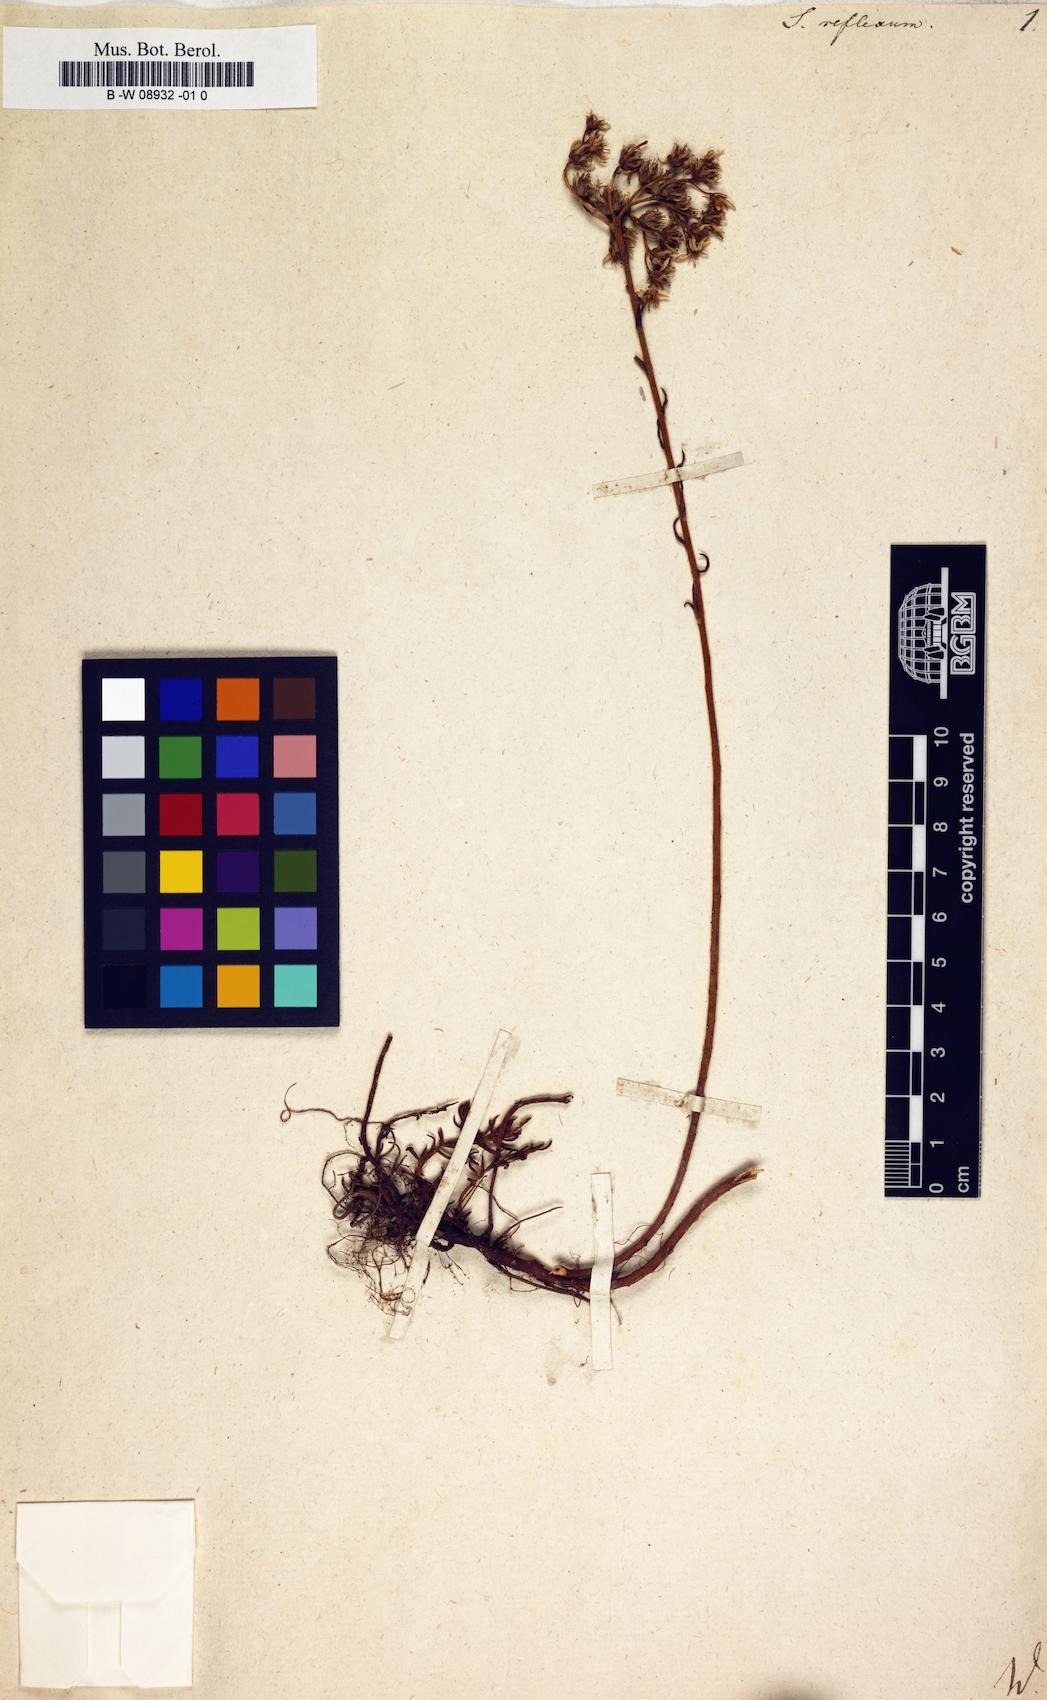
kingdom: Plantae
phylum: Tracheophyta
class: Magnoliopsida
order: Saxifragales
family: Crassulaceae
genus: Petrosedum
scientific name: Petrosedum
